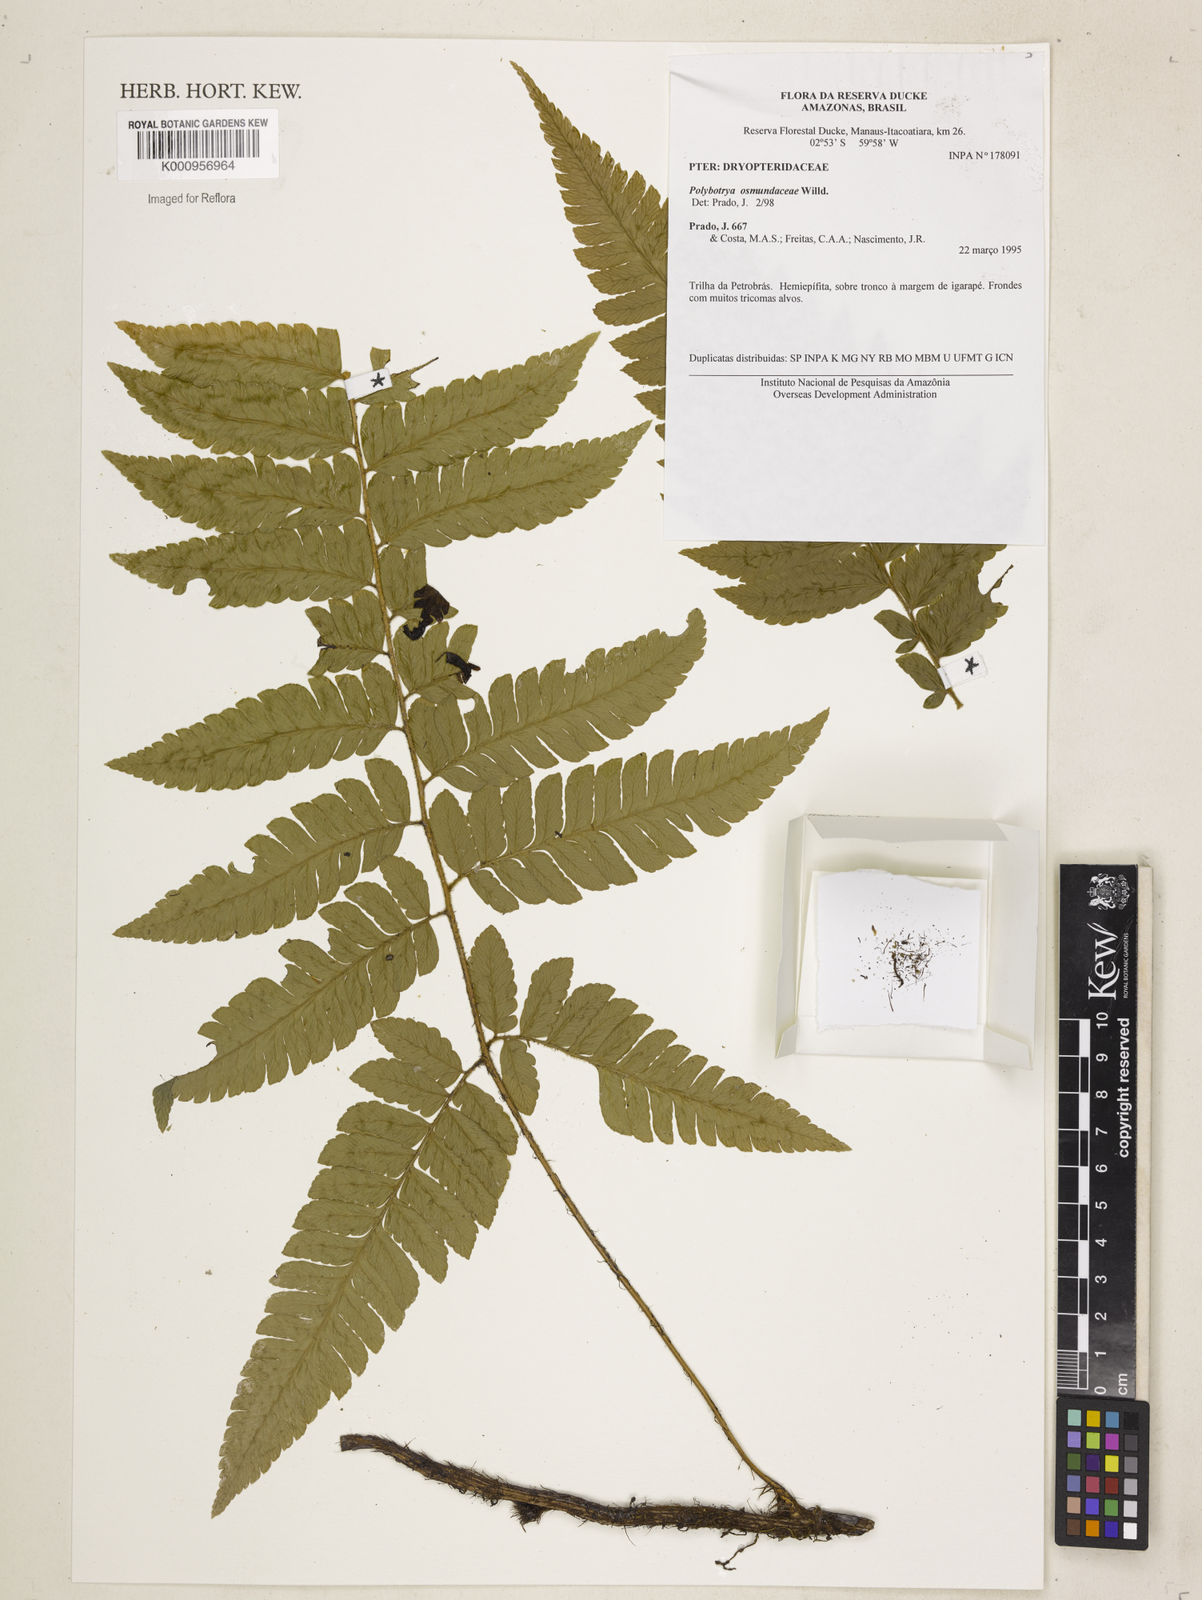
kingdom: Plantae
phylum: Tracheophyta
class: Polypodiopsida
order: Polypodiales
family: Dryopteridaceae
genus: Polybotrya
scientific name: Polybotrya osmundacea
